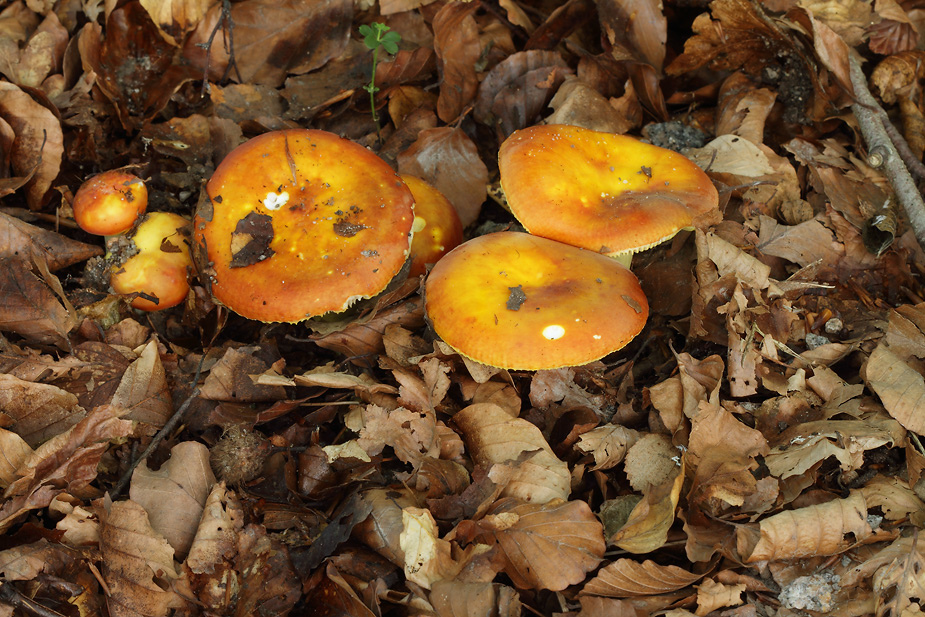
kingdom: Fungi
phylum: Basidiomycota
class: Agaricomycetes
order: Russulales
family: Russulaceae
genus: Russula
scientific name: Russula aurea
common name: gylden skørhat
